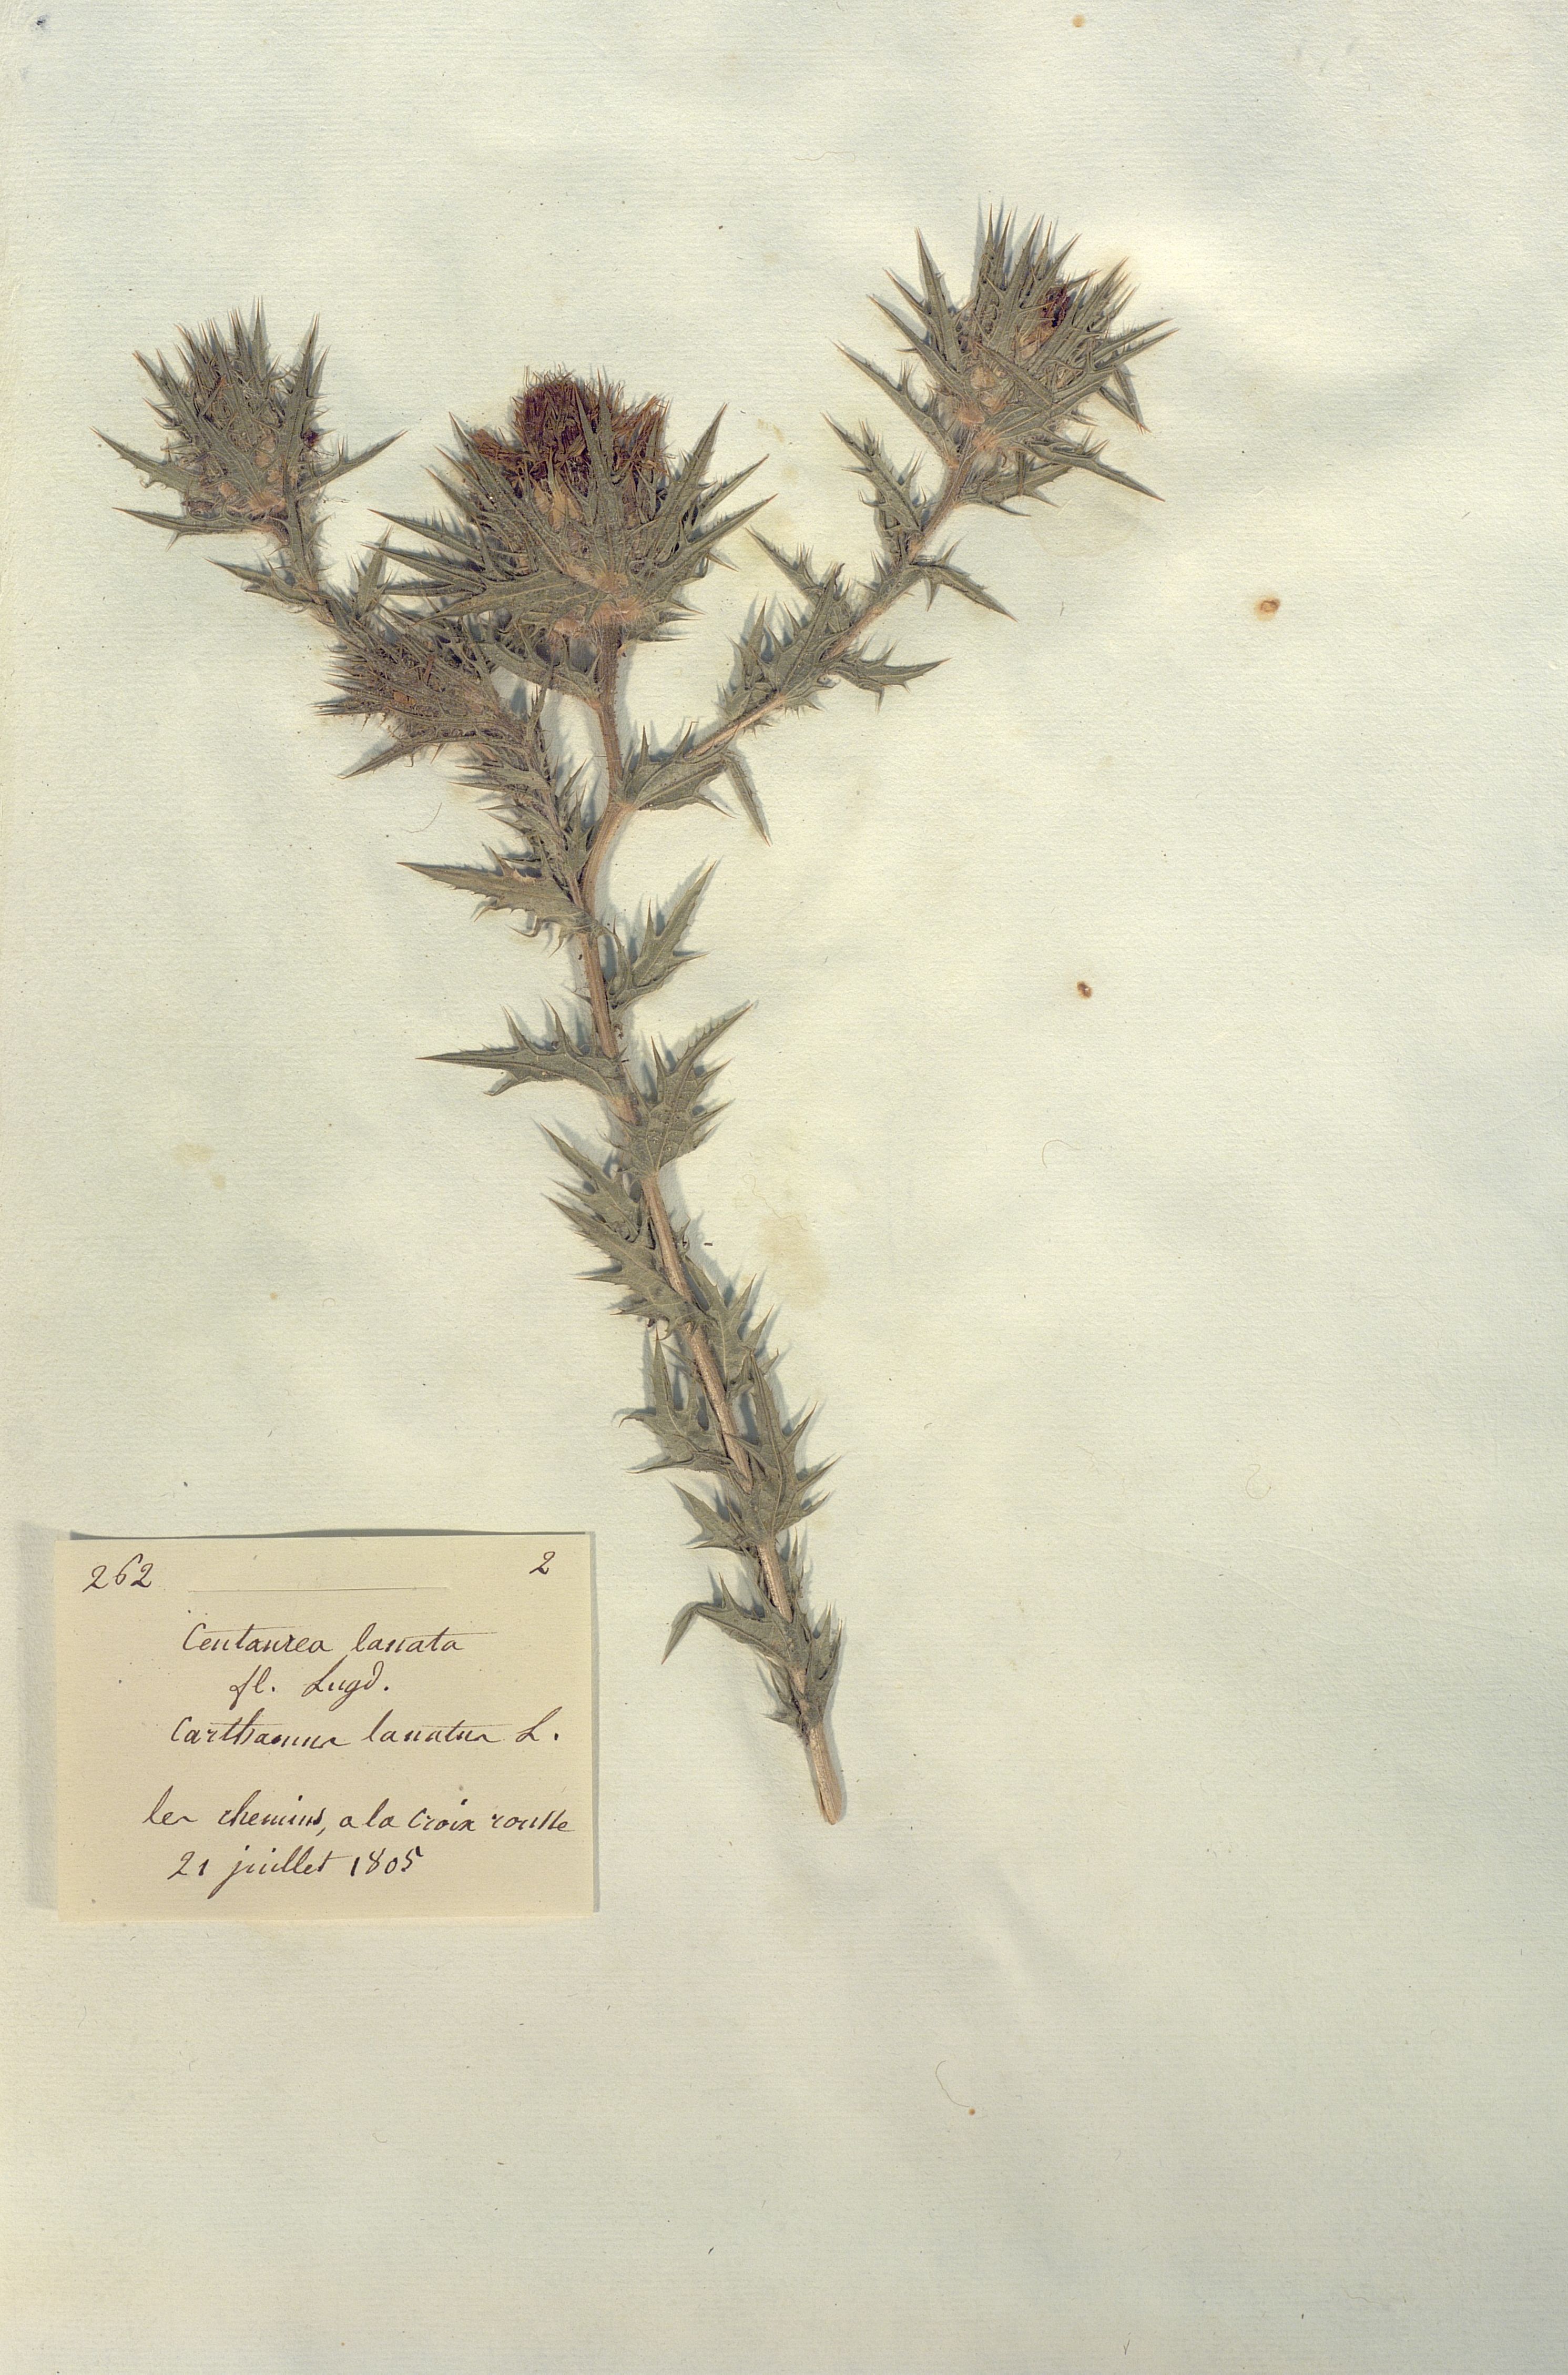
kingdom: Plantae
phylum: Tracheophyta
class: Magnoliopsida
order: Asterales
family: Asteraceae
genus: Centaurea
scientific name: Centaurea lanata
